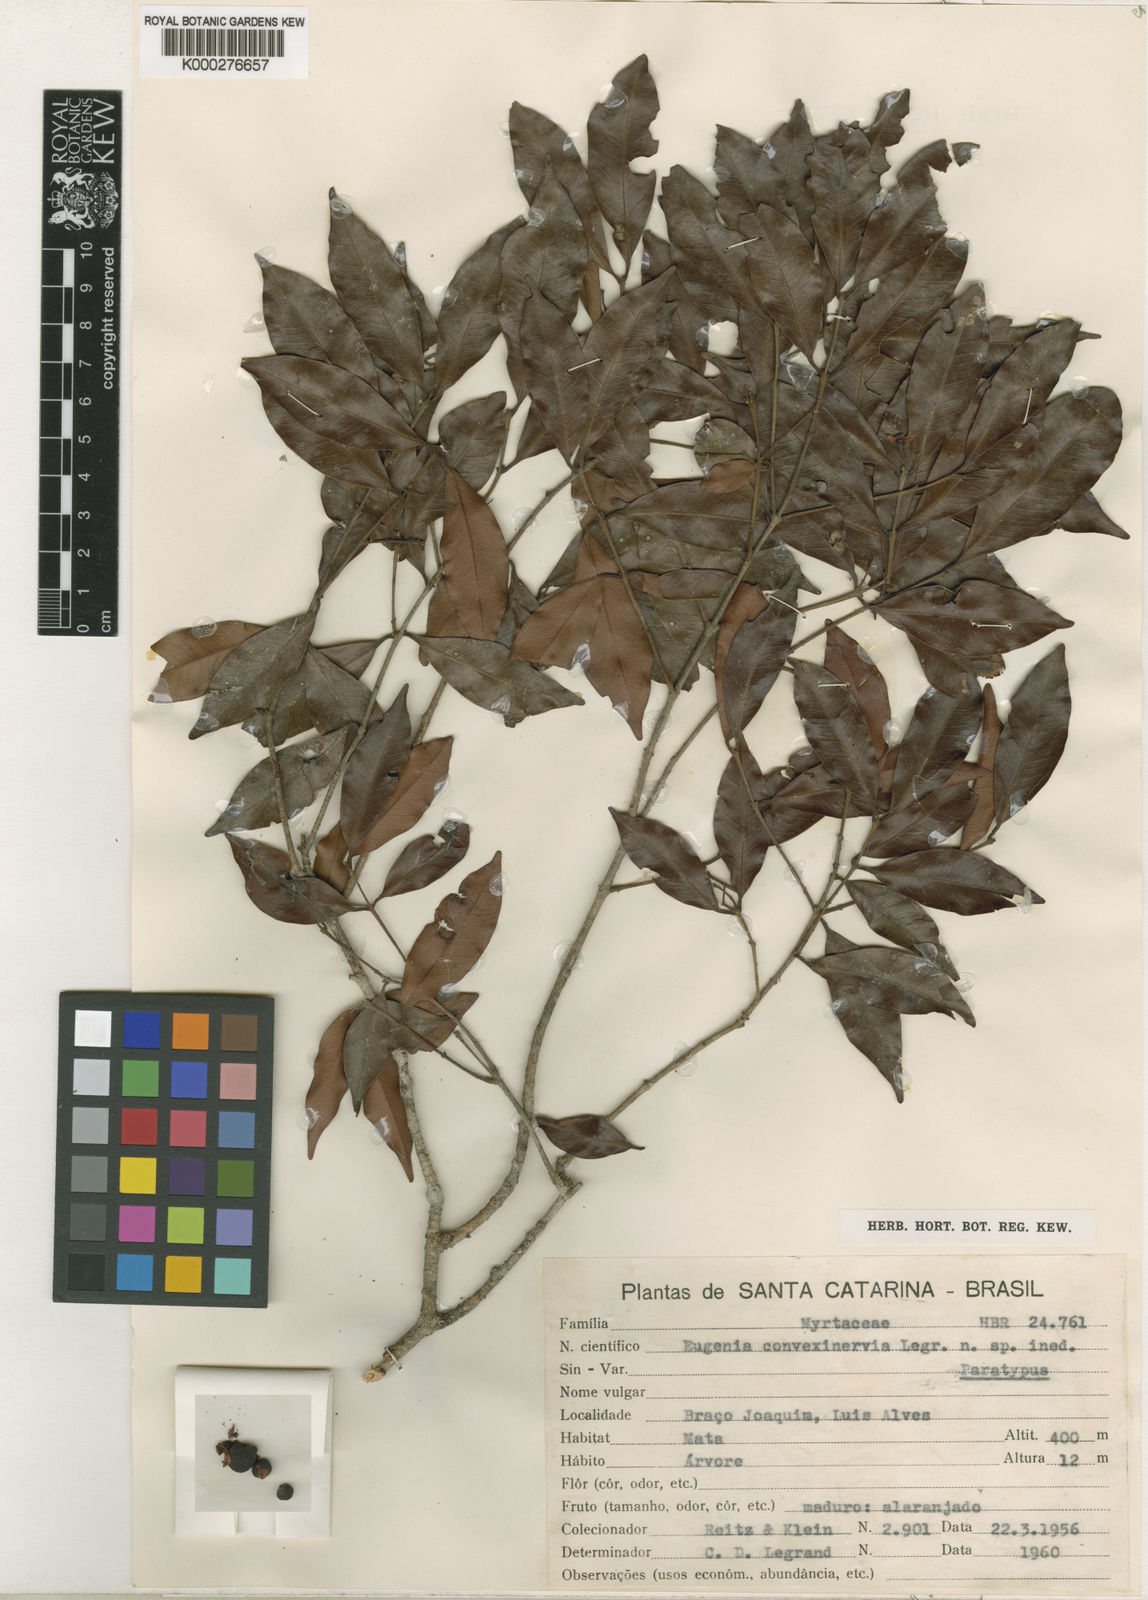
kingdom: Plantae
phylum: Tracheophyta
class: Magnoliopsida
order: Myrtales
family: Myrtaceae
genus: Eugenia
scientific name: Eugenia convexinervia
